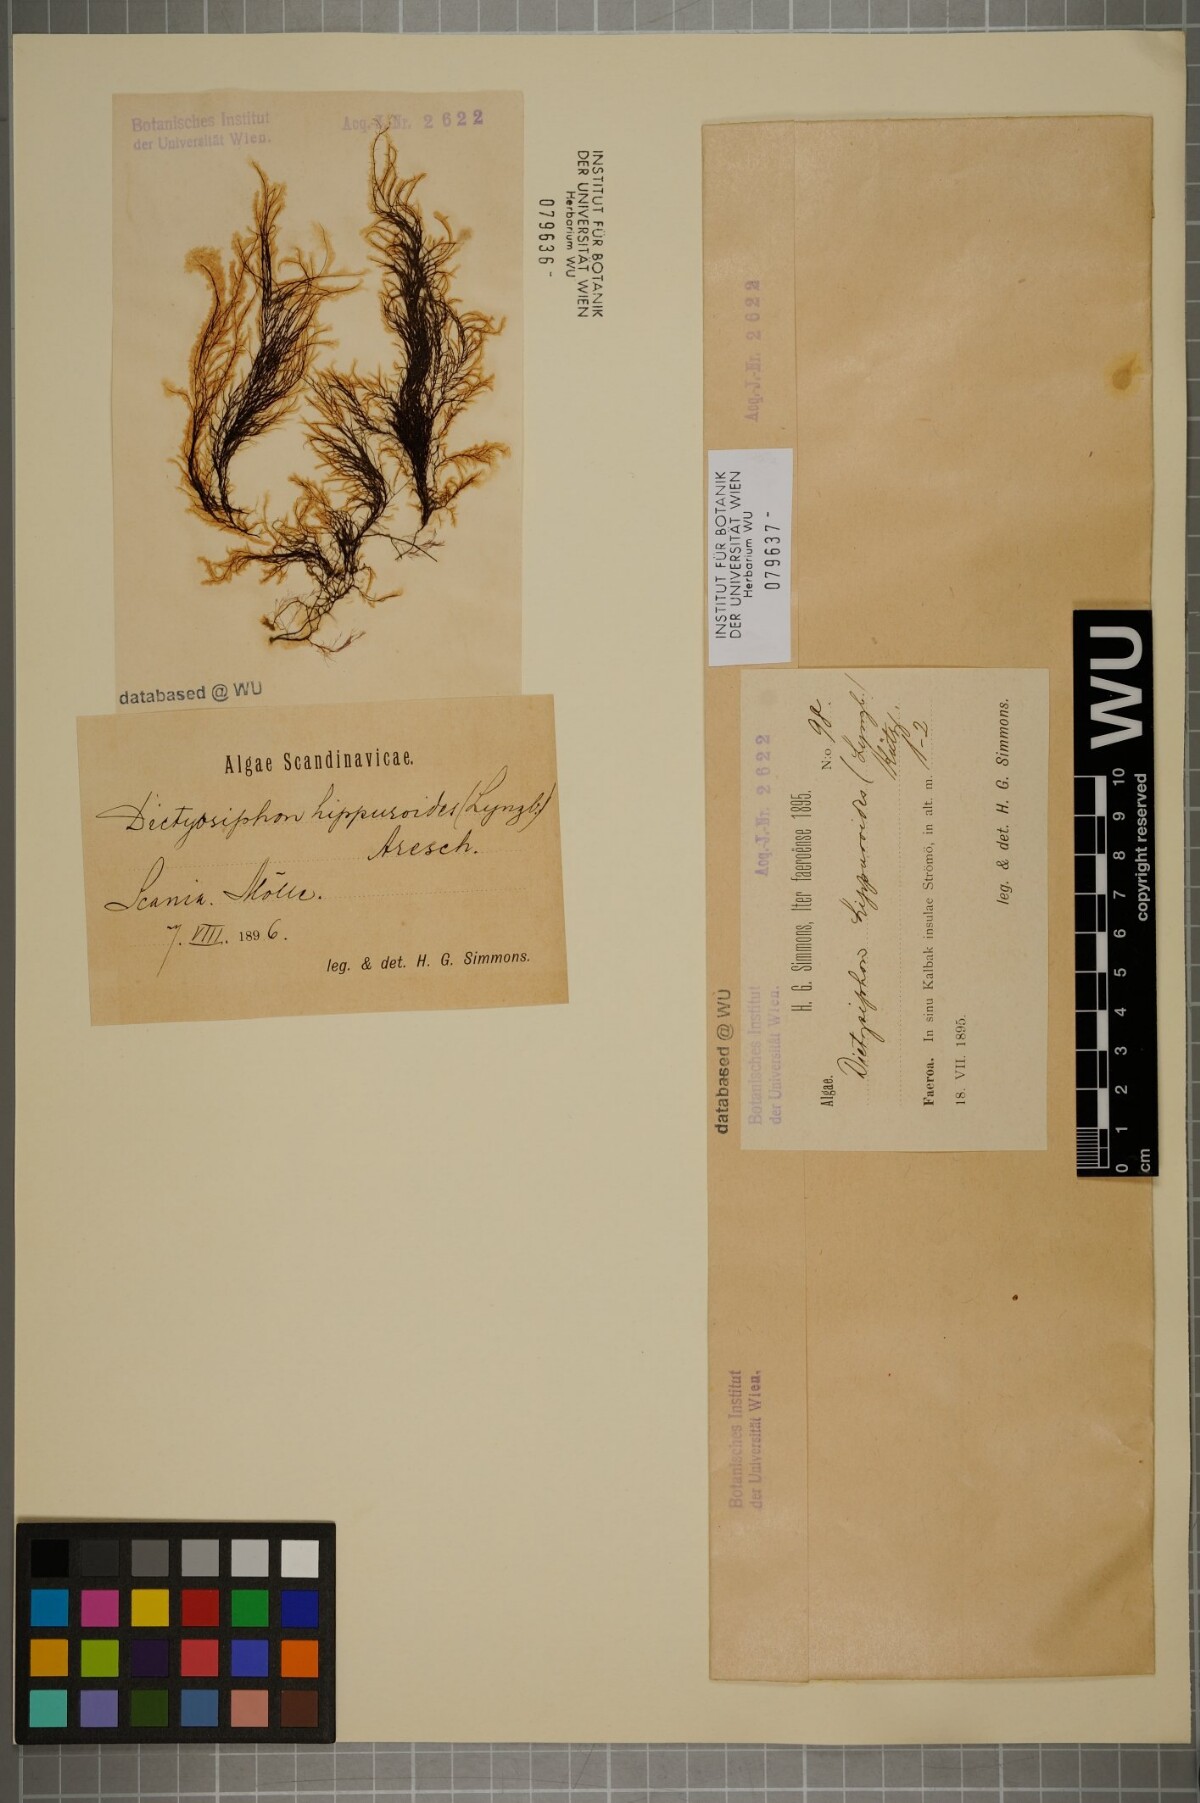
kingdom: Chromista
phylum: Ochrophyta
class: Phaeophyceae
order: Ectocarpales
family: Chordariaceae
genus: Dictyosiphon
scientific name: Dictyosiphon foeniculaceus
